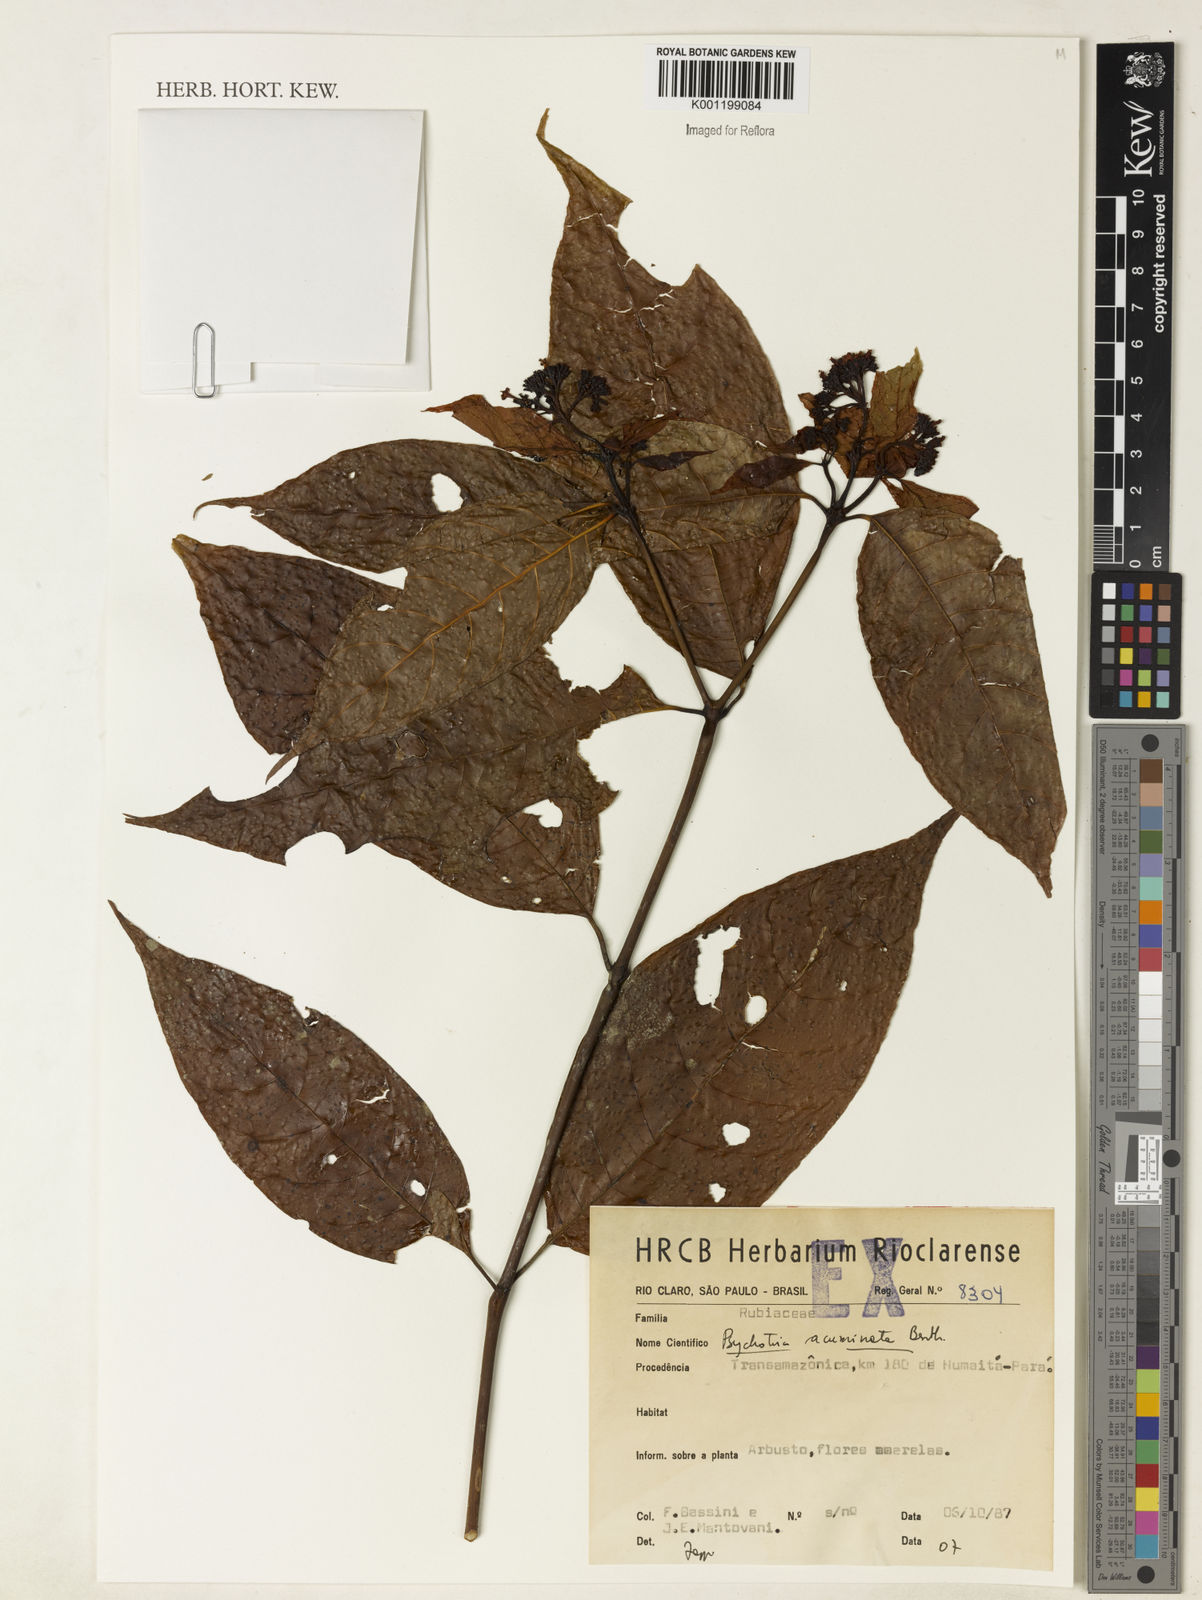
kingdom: Plantae
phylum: Tracheophyta
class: Magnoliopsida
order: Gentianales
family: Rubiaceae
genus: Palicourea
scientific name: Palicourea acuminata
